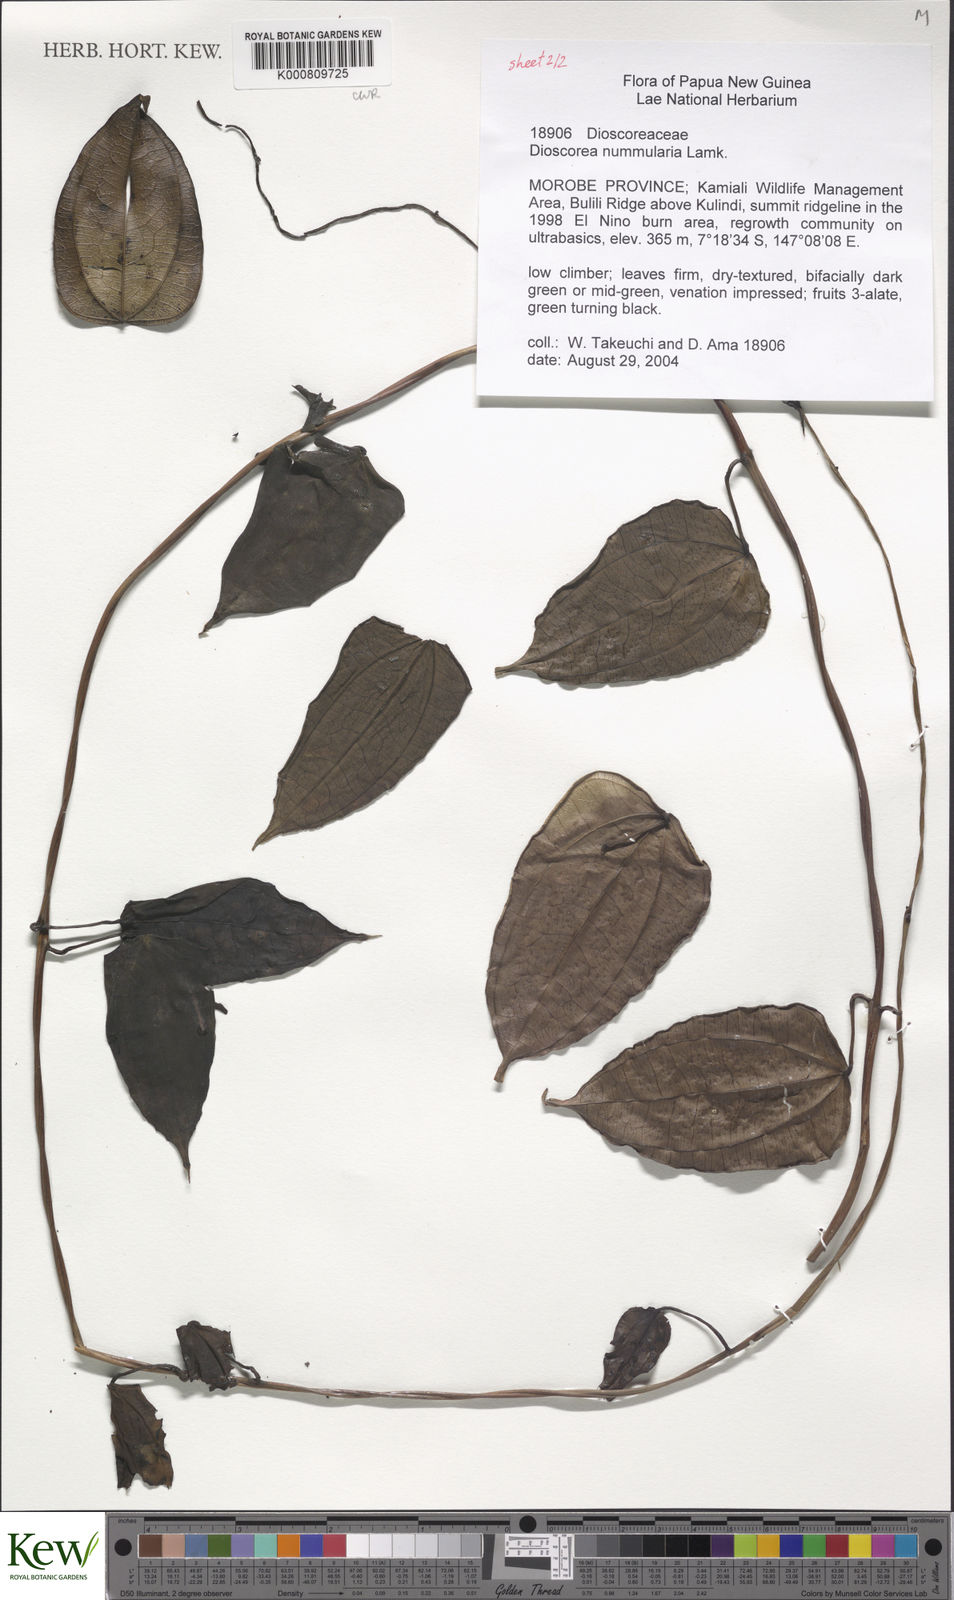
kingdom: Plantae
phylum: Tracheophyta
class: Liliopsida
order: Dioscoreales
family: Dioscoreaceae
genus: Dioscorea
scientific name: Dioscorea nummularia
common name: Pacific yam
